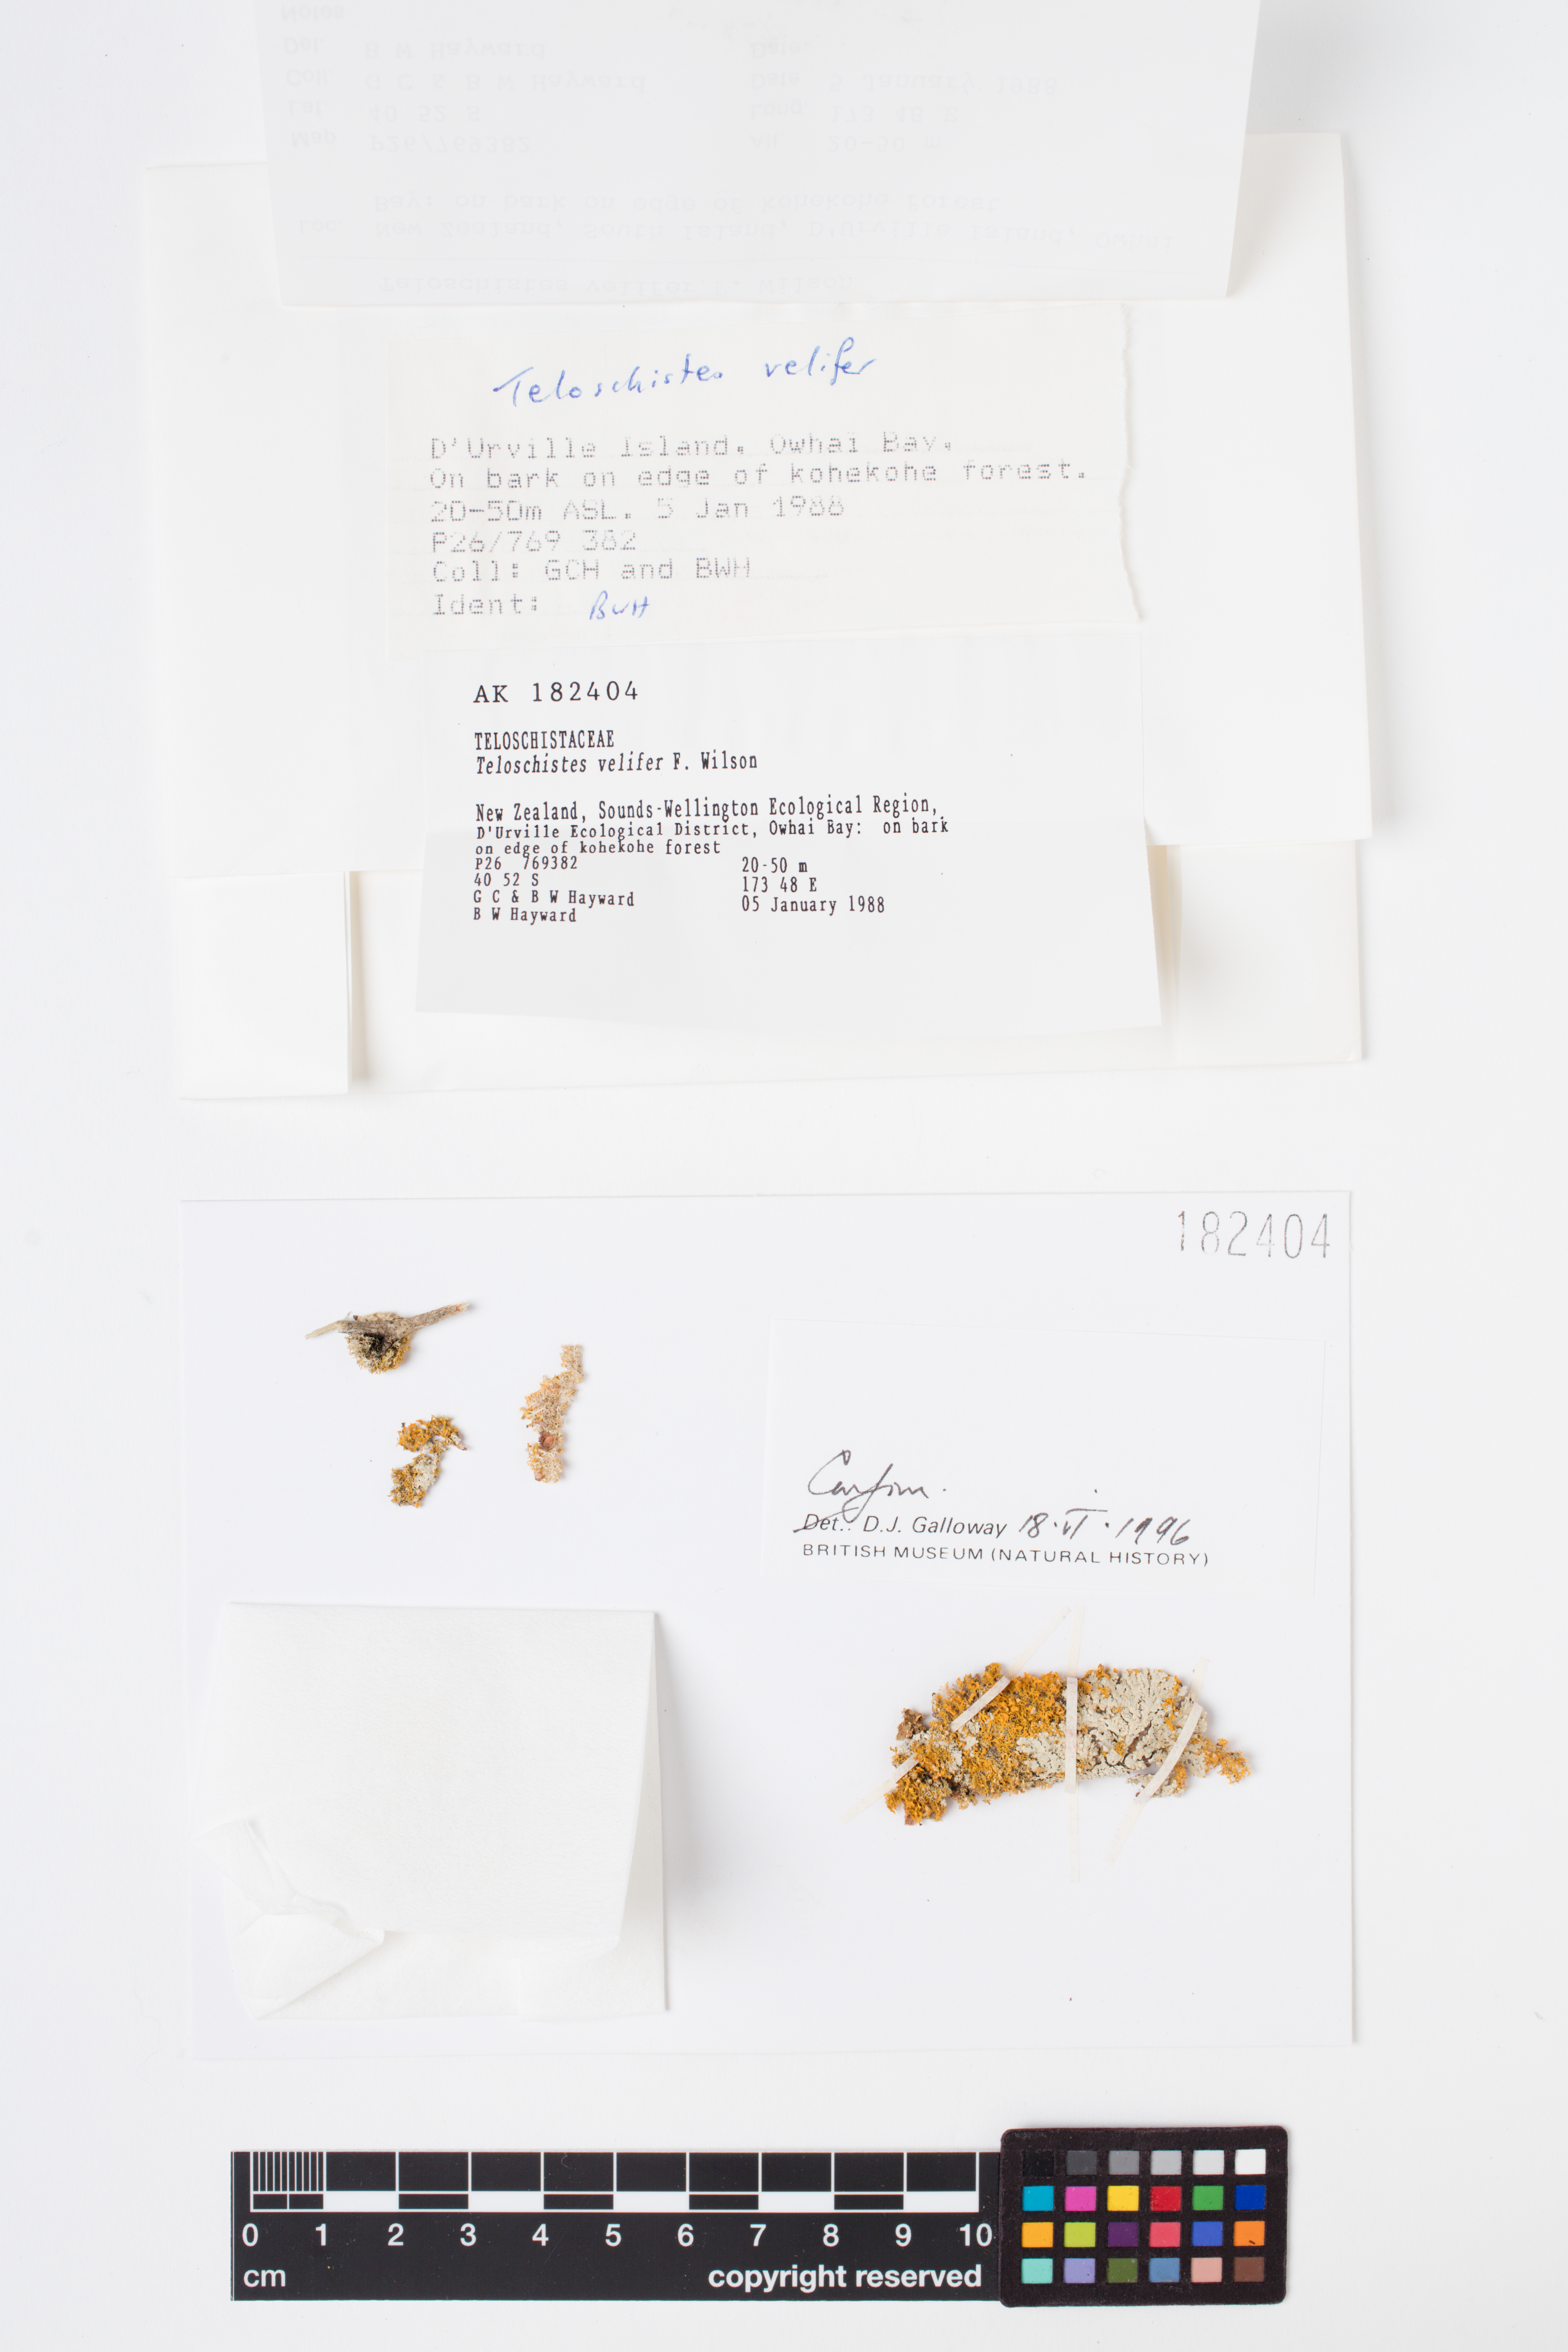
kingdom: Fungi
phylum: Ascomycota
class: Lecanoromycetes
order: Teloschistales
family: Teloschistaceae
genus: Teloschistes
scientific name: Teloschistes velifer
